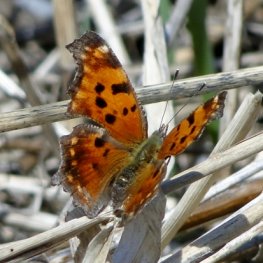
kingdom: Animalia
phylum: Arthropoda
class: Insecta
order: Lepidoptera
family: Nymphalidae
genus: Polygonia
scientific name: Polygonia comma
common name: Eastern Comma
